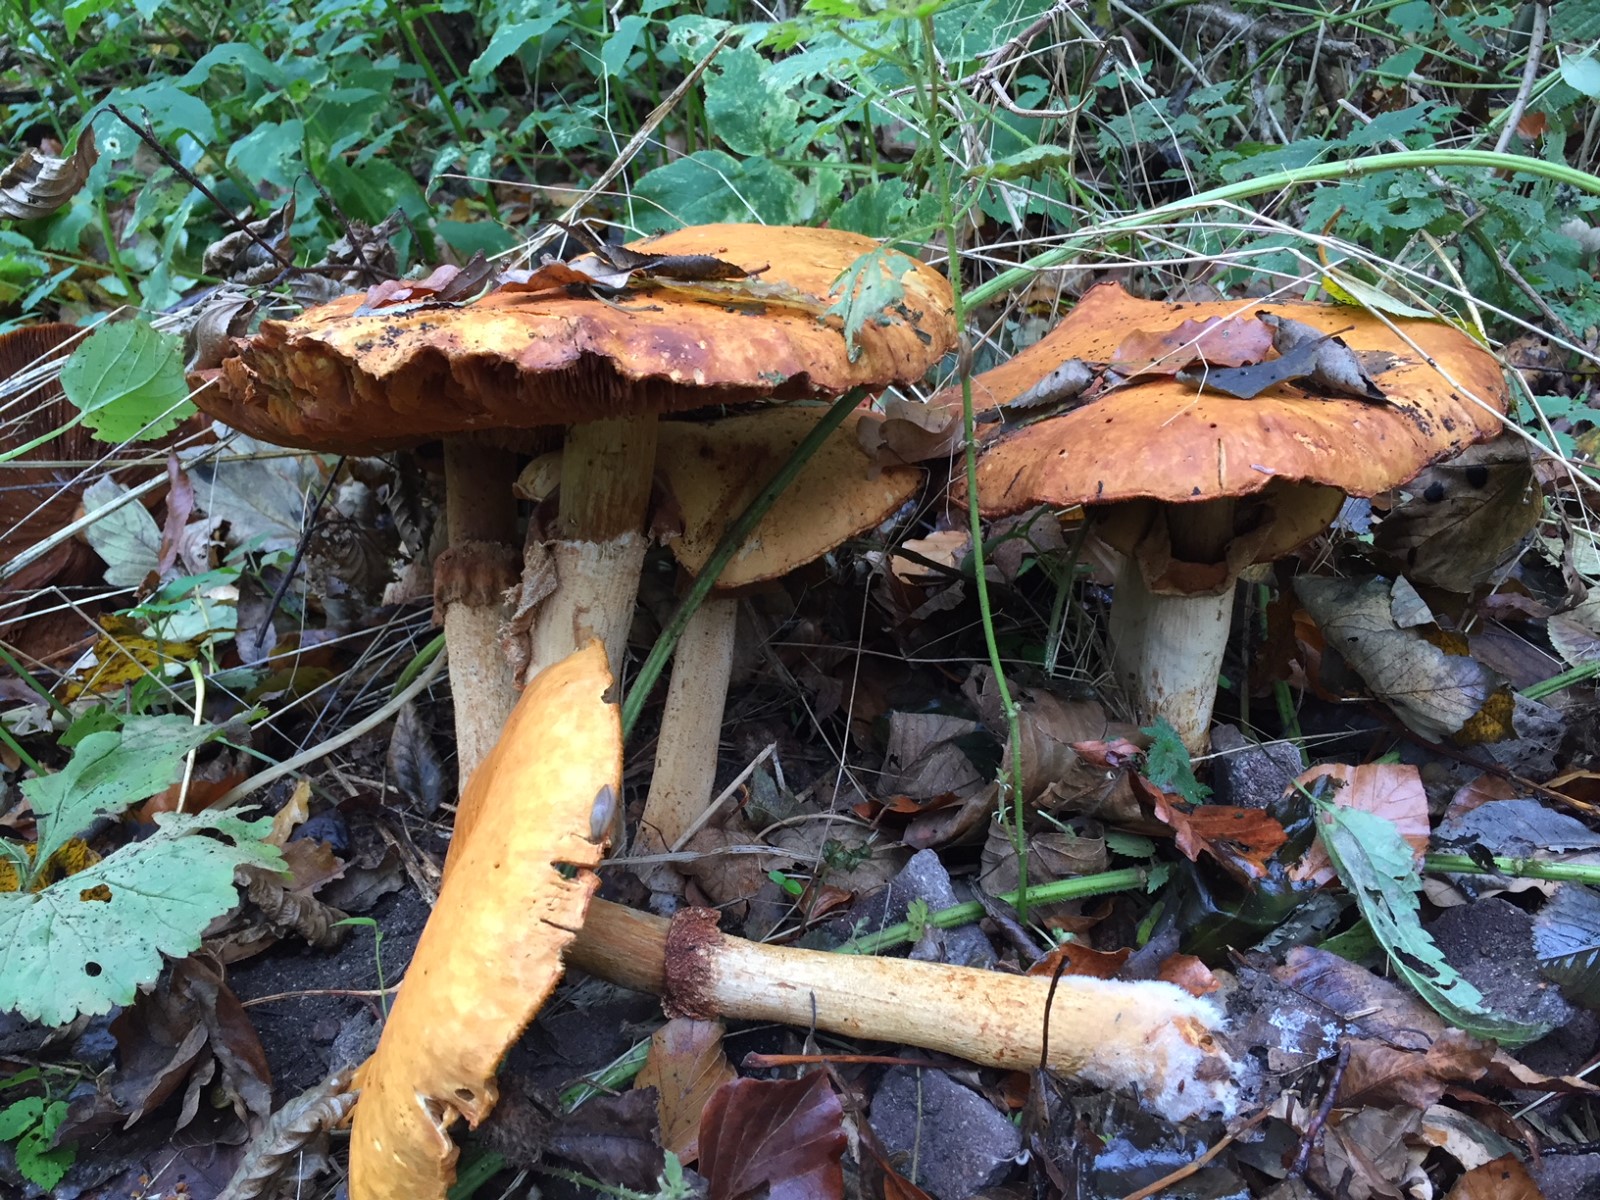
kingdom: Fungi
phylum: Basidiomycota
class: Agaricomycetes
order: Agaricales
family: Tricholomataceae
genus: Phaeolepiota
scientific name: Phaeolepiota aurea
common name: gyldenhat
